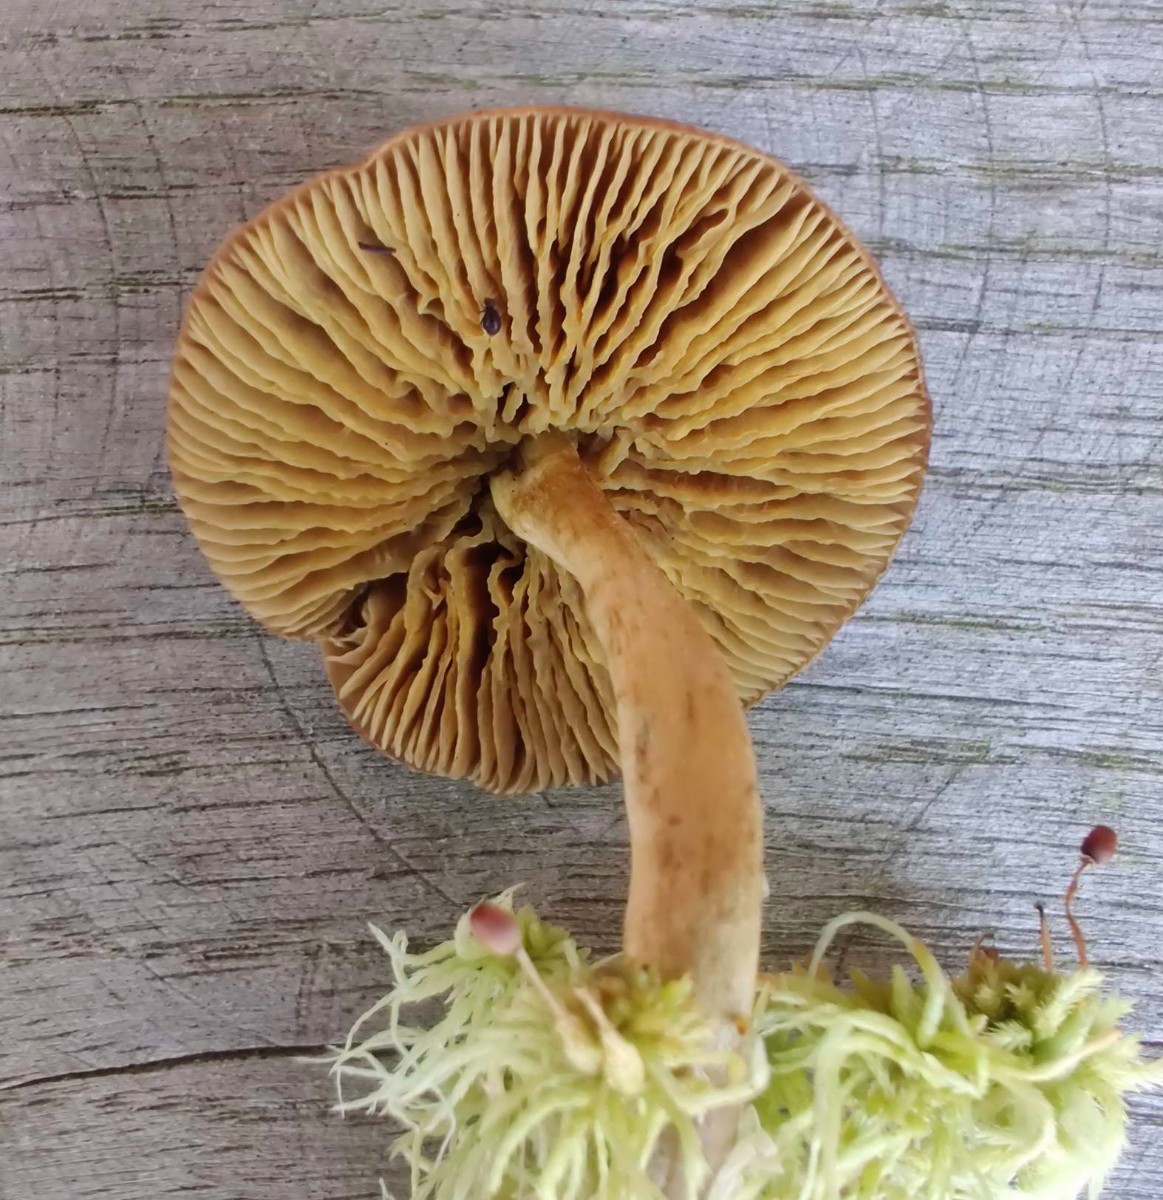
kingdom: Fungi
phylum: Basidiomycota
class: Agaricomycetes
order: Agaricales
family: Cortinariaceae
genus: Cortinarius
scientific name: Cortinarius
